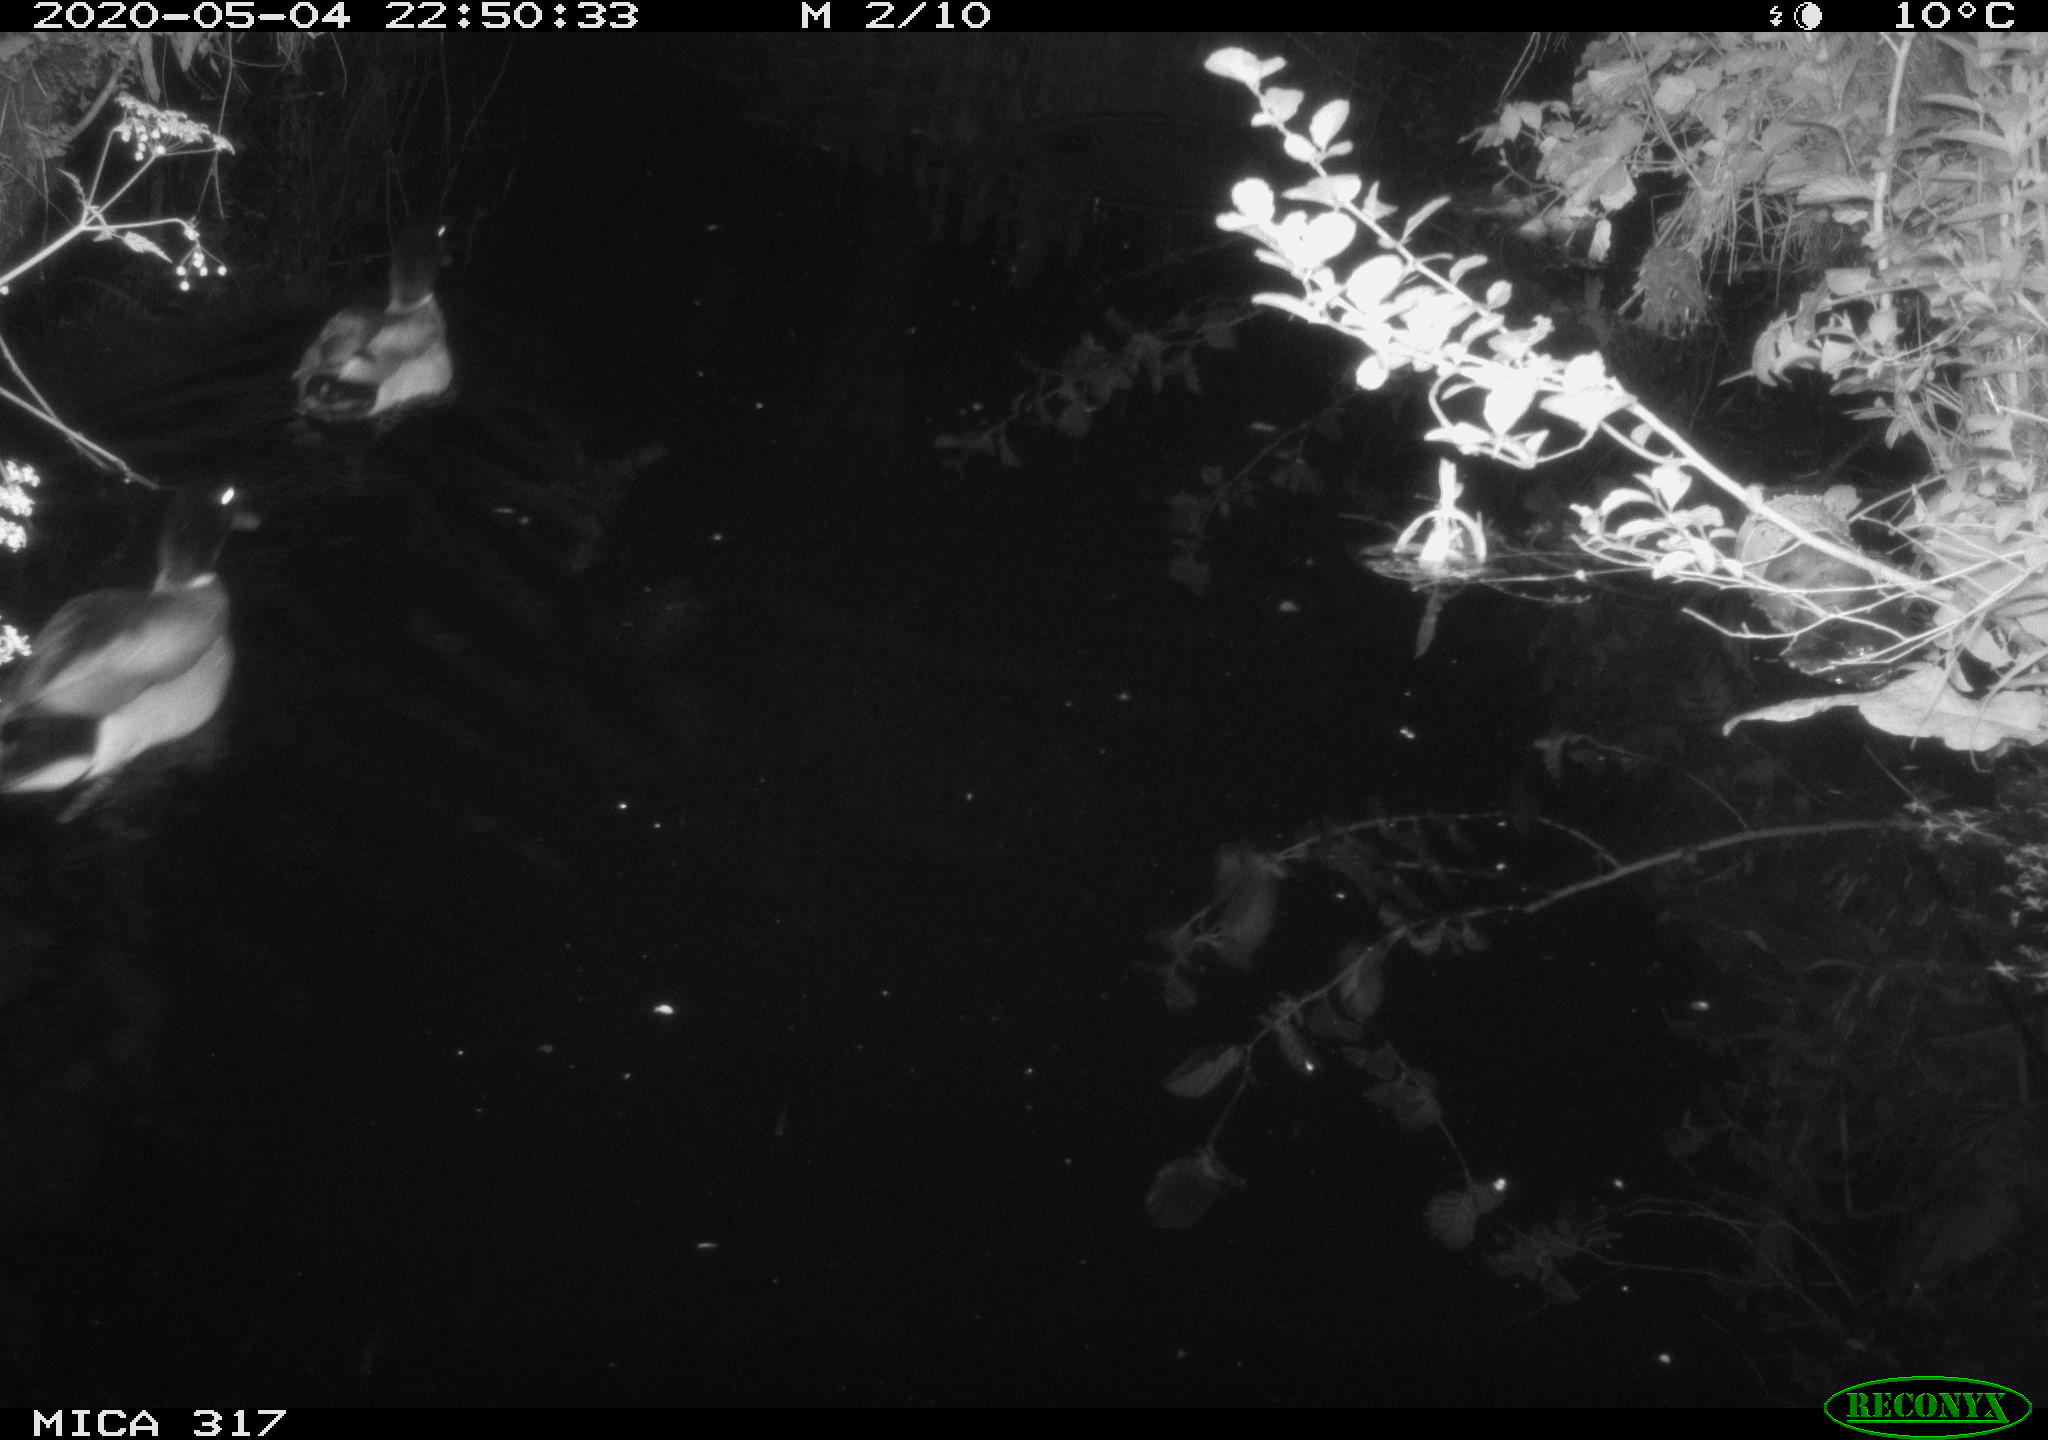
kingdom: Animalia
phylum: Chordata
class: Aves
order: Anseriformes
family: Anatidae
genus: Anas
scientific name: Anas platyrhynchos
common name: Mallard
